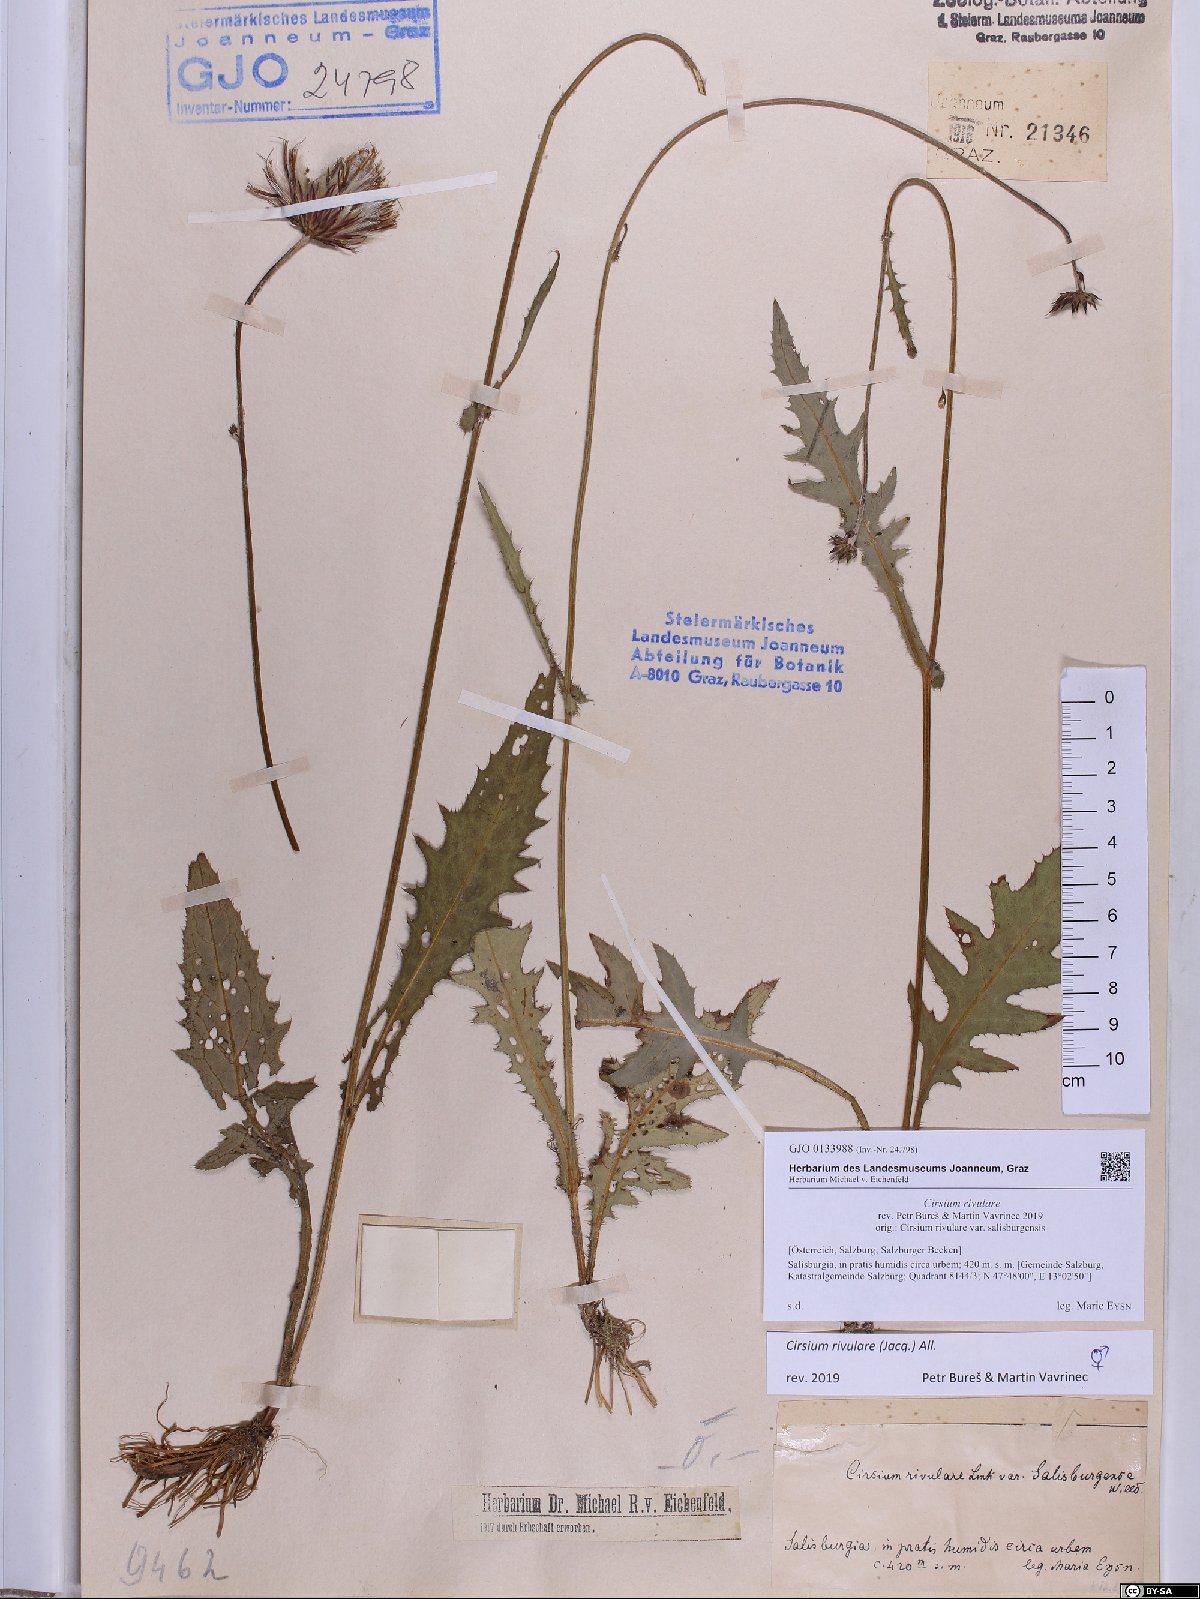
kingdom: Plantae
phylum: Tracheophyta
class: Magnoliopsida
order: Asterales
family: Asteraceae
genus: Cirsium
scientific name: Cirsium rivulare
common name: Brook thistle
